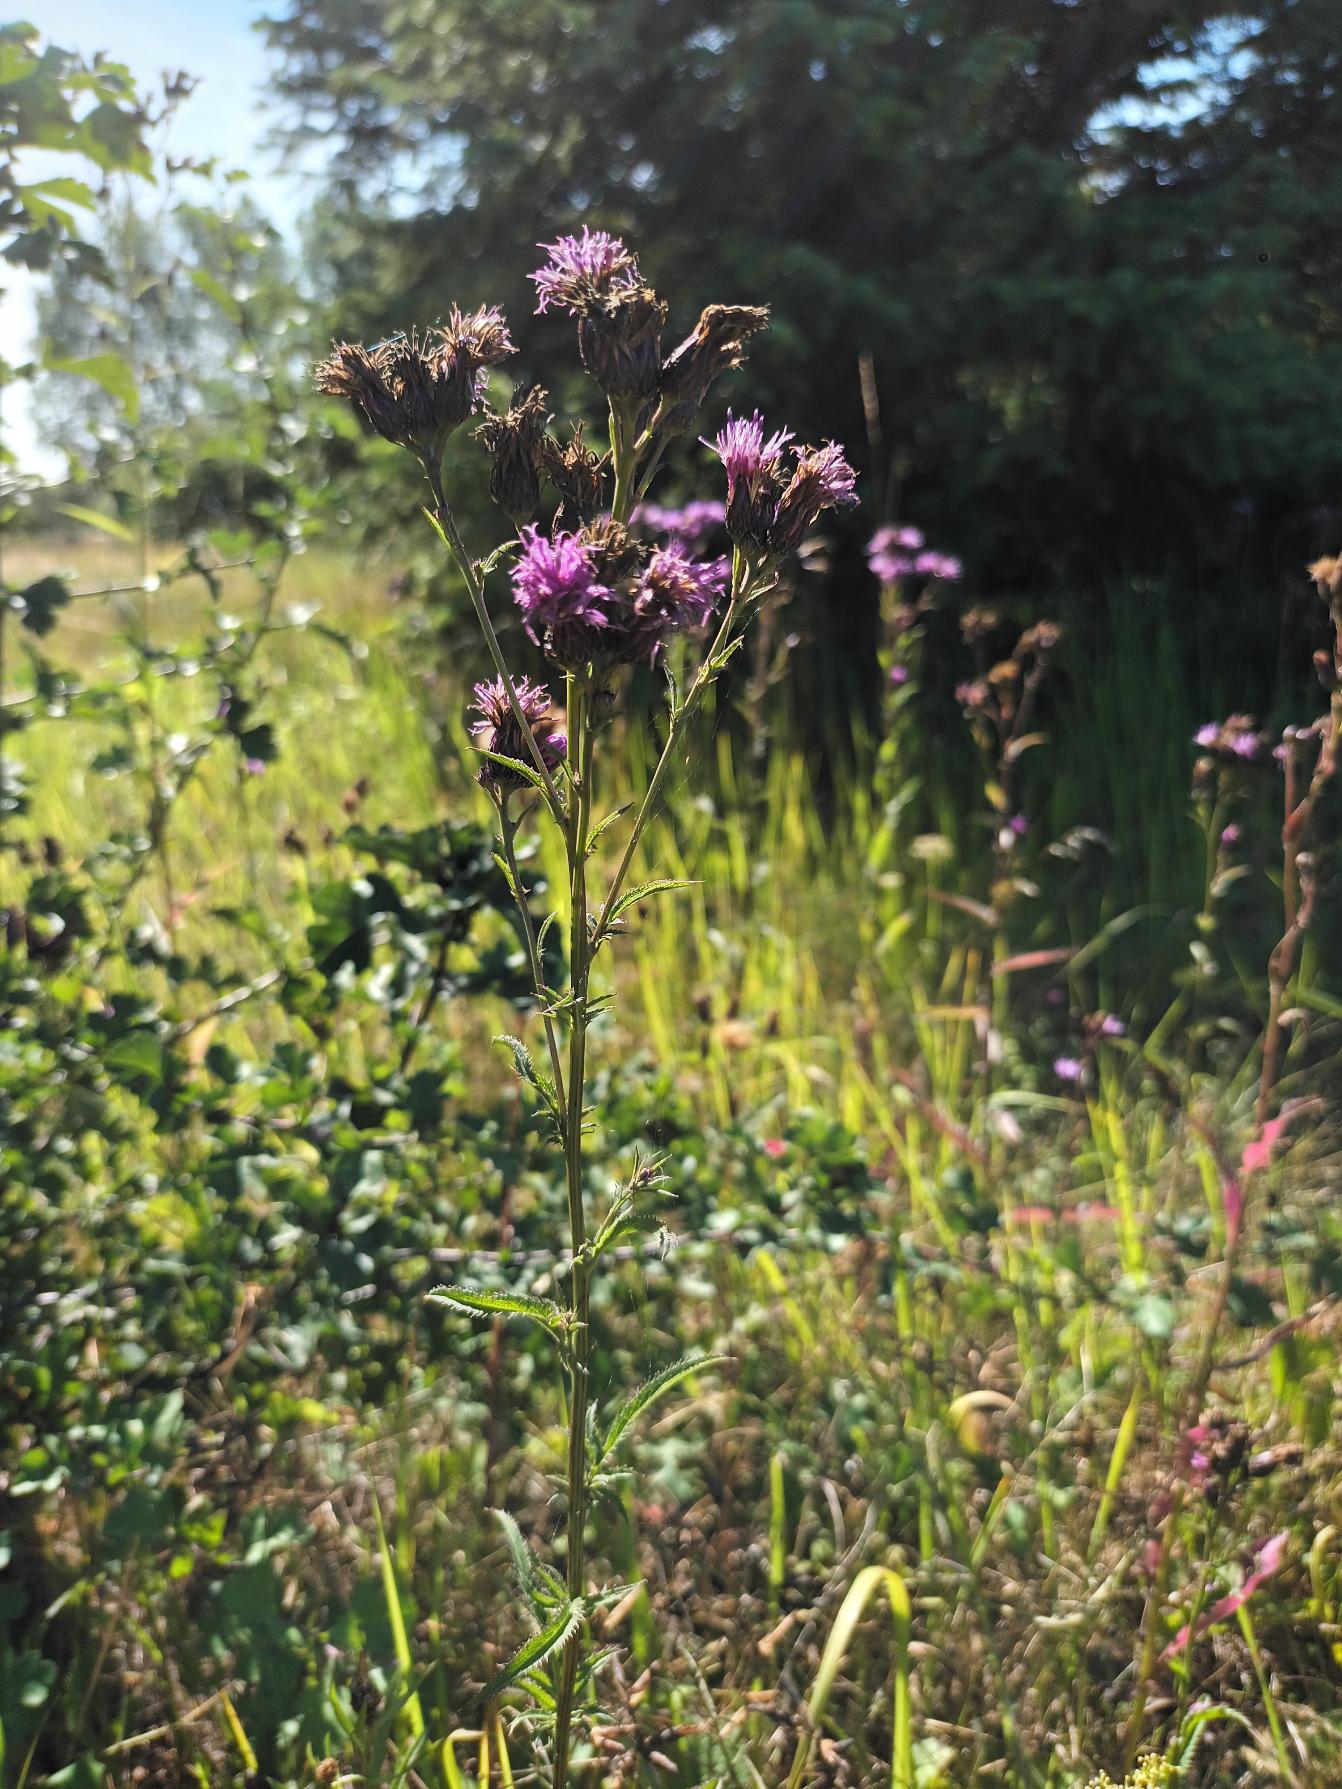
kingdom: Plantae
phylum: Tracheophyta
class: Magnoliopsida
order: Asterales
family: Asteraceae
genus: Serratula
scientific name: Serratula tinctoria
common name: Eng-skær
